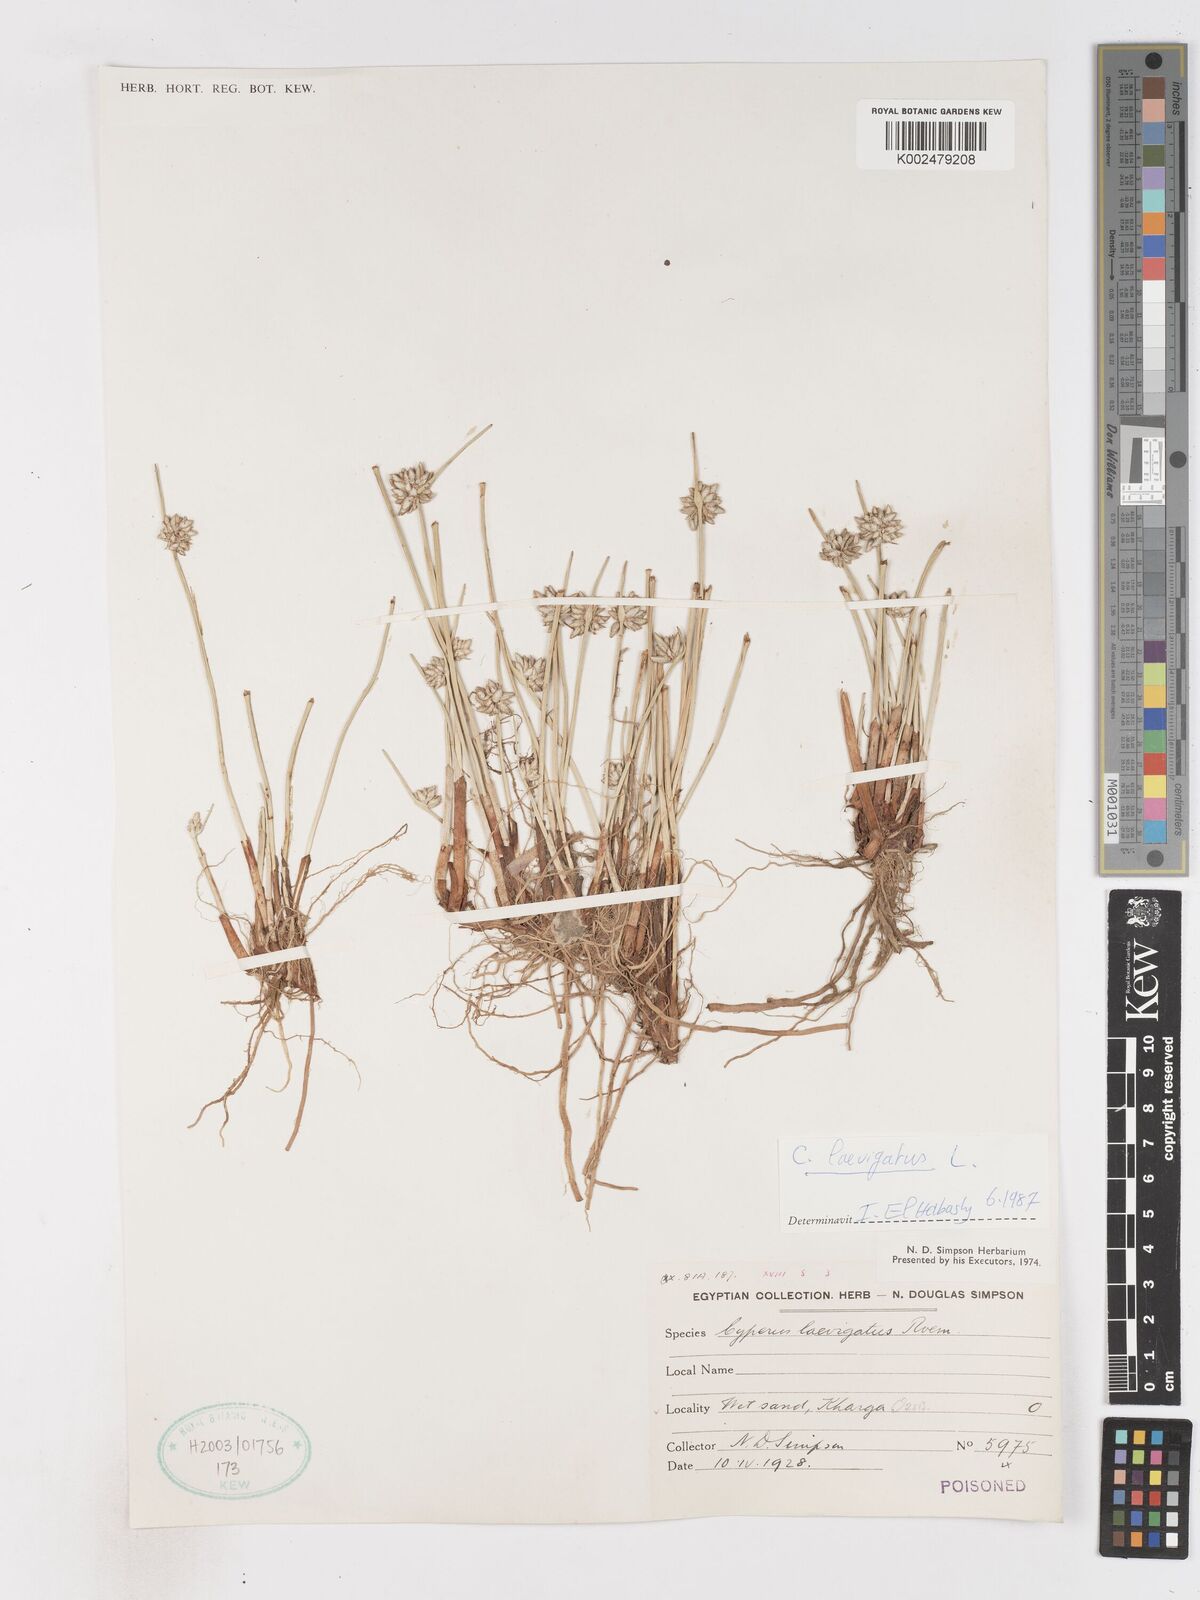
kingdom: Plantae
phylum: Tracheophyta
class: Liliopsida
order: Poales
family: Cyperaceae
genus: Cyperus
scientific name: Cyperus laevigatus
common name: Smooth flat sedge
